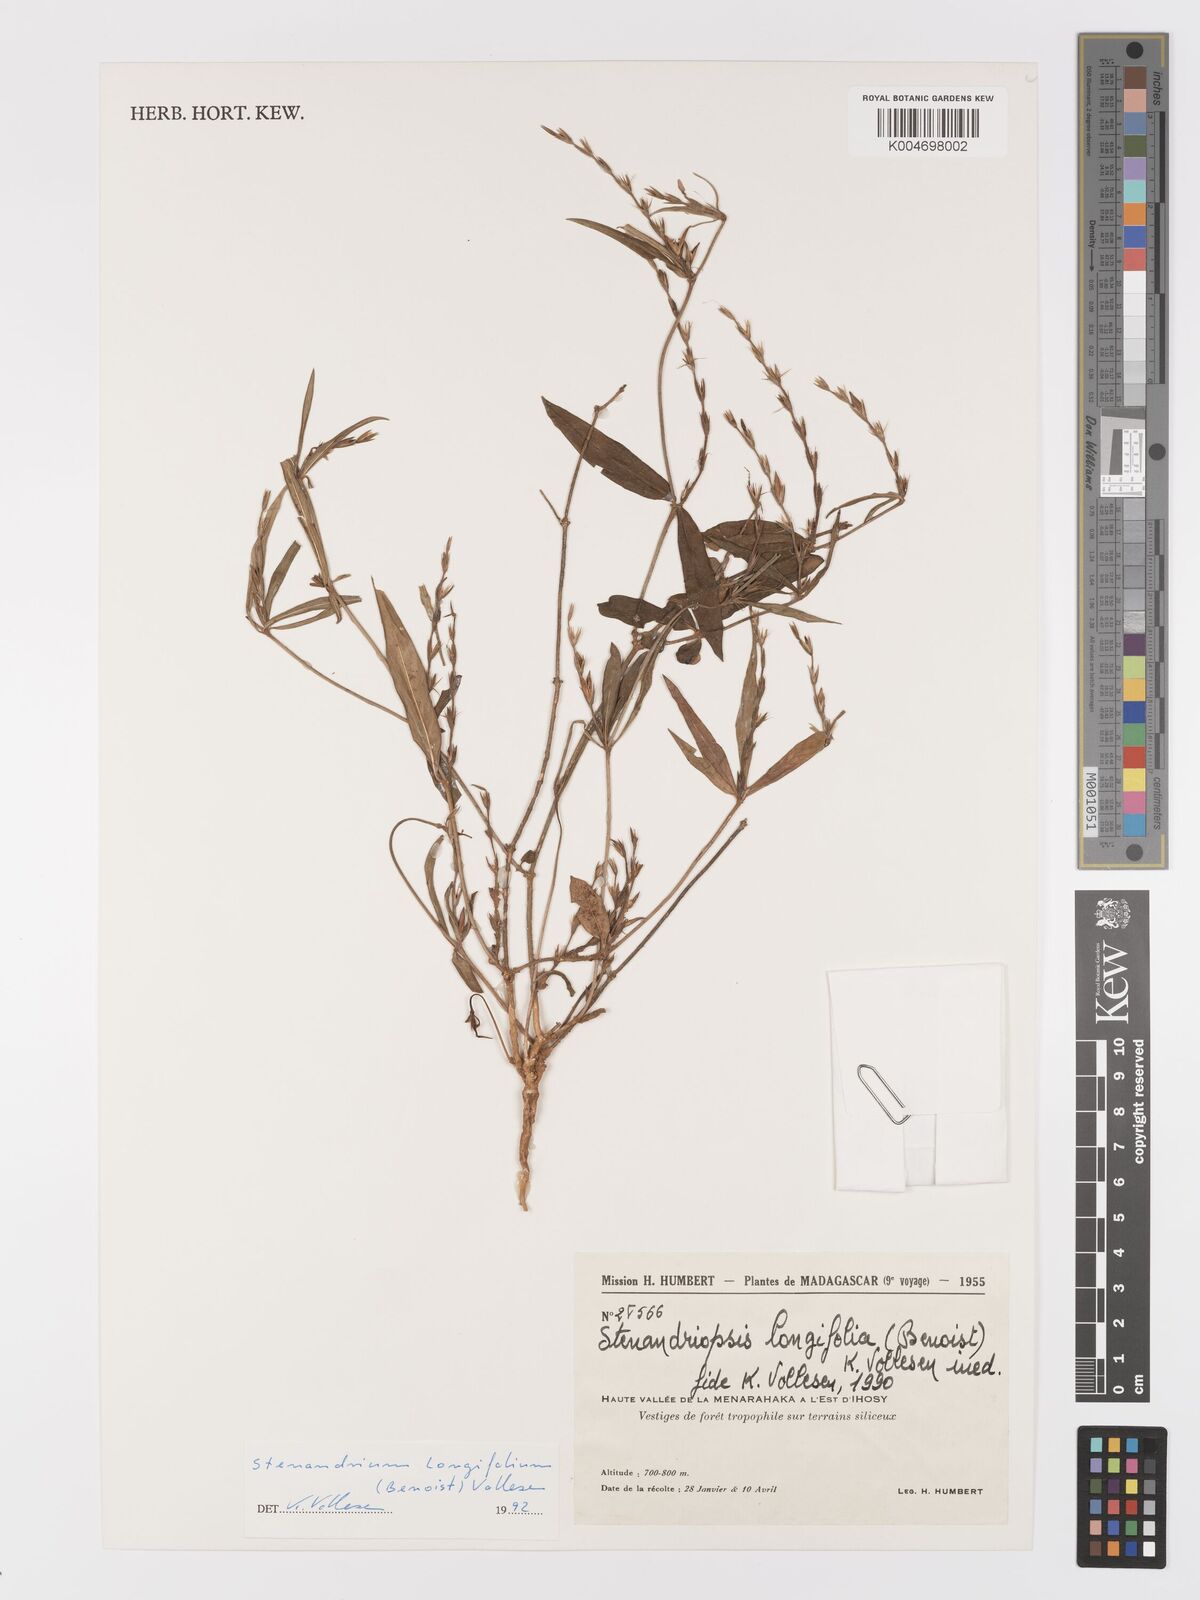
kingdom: Plantae
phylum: Tracheophyta
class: Magnoliopsida
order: Lamiales
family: Acanthaceae
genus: Stenandriopsis
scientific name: Stenandriopsis
